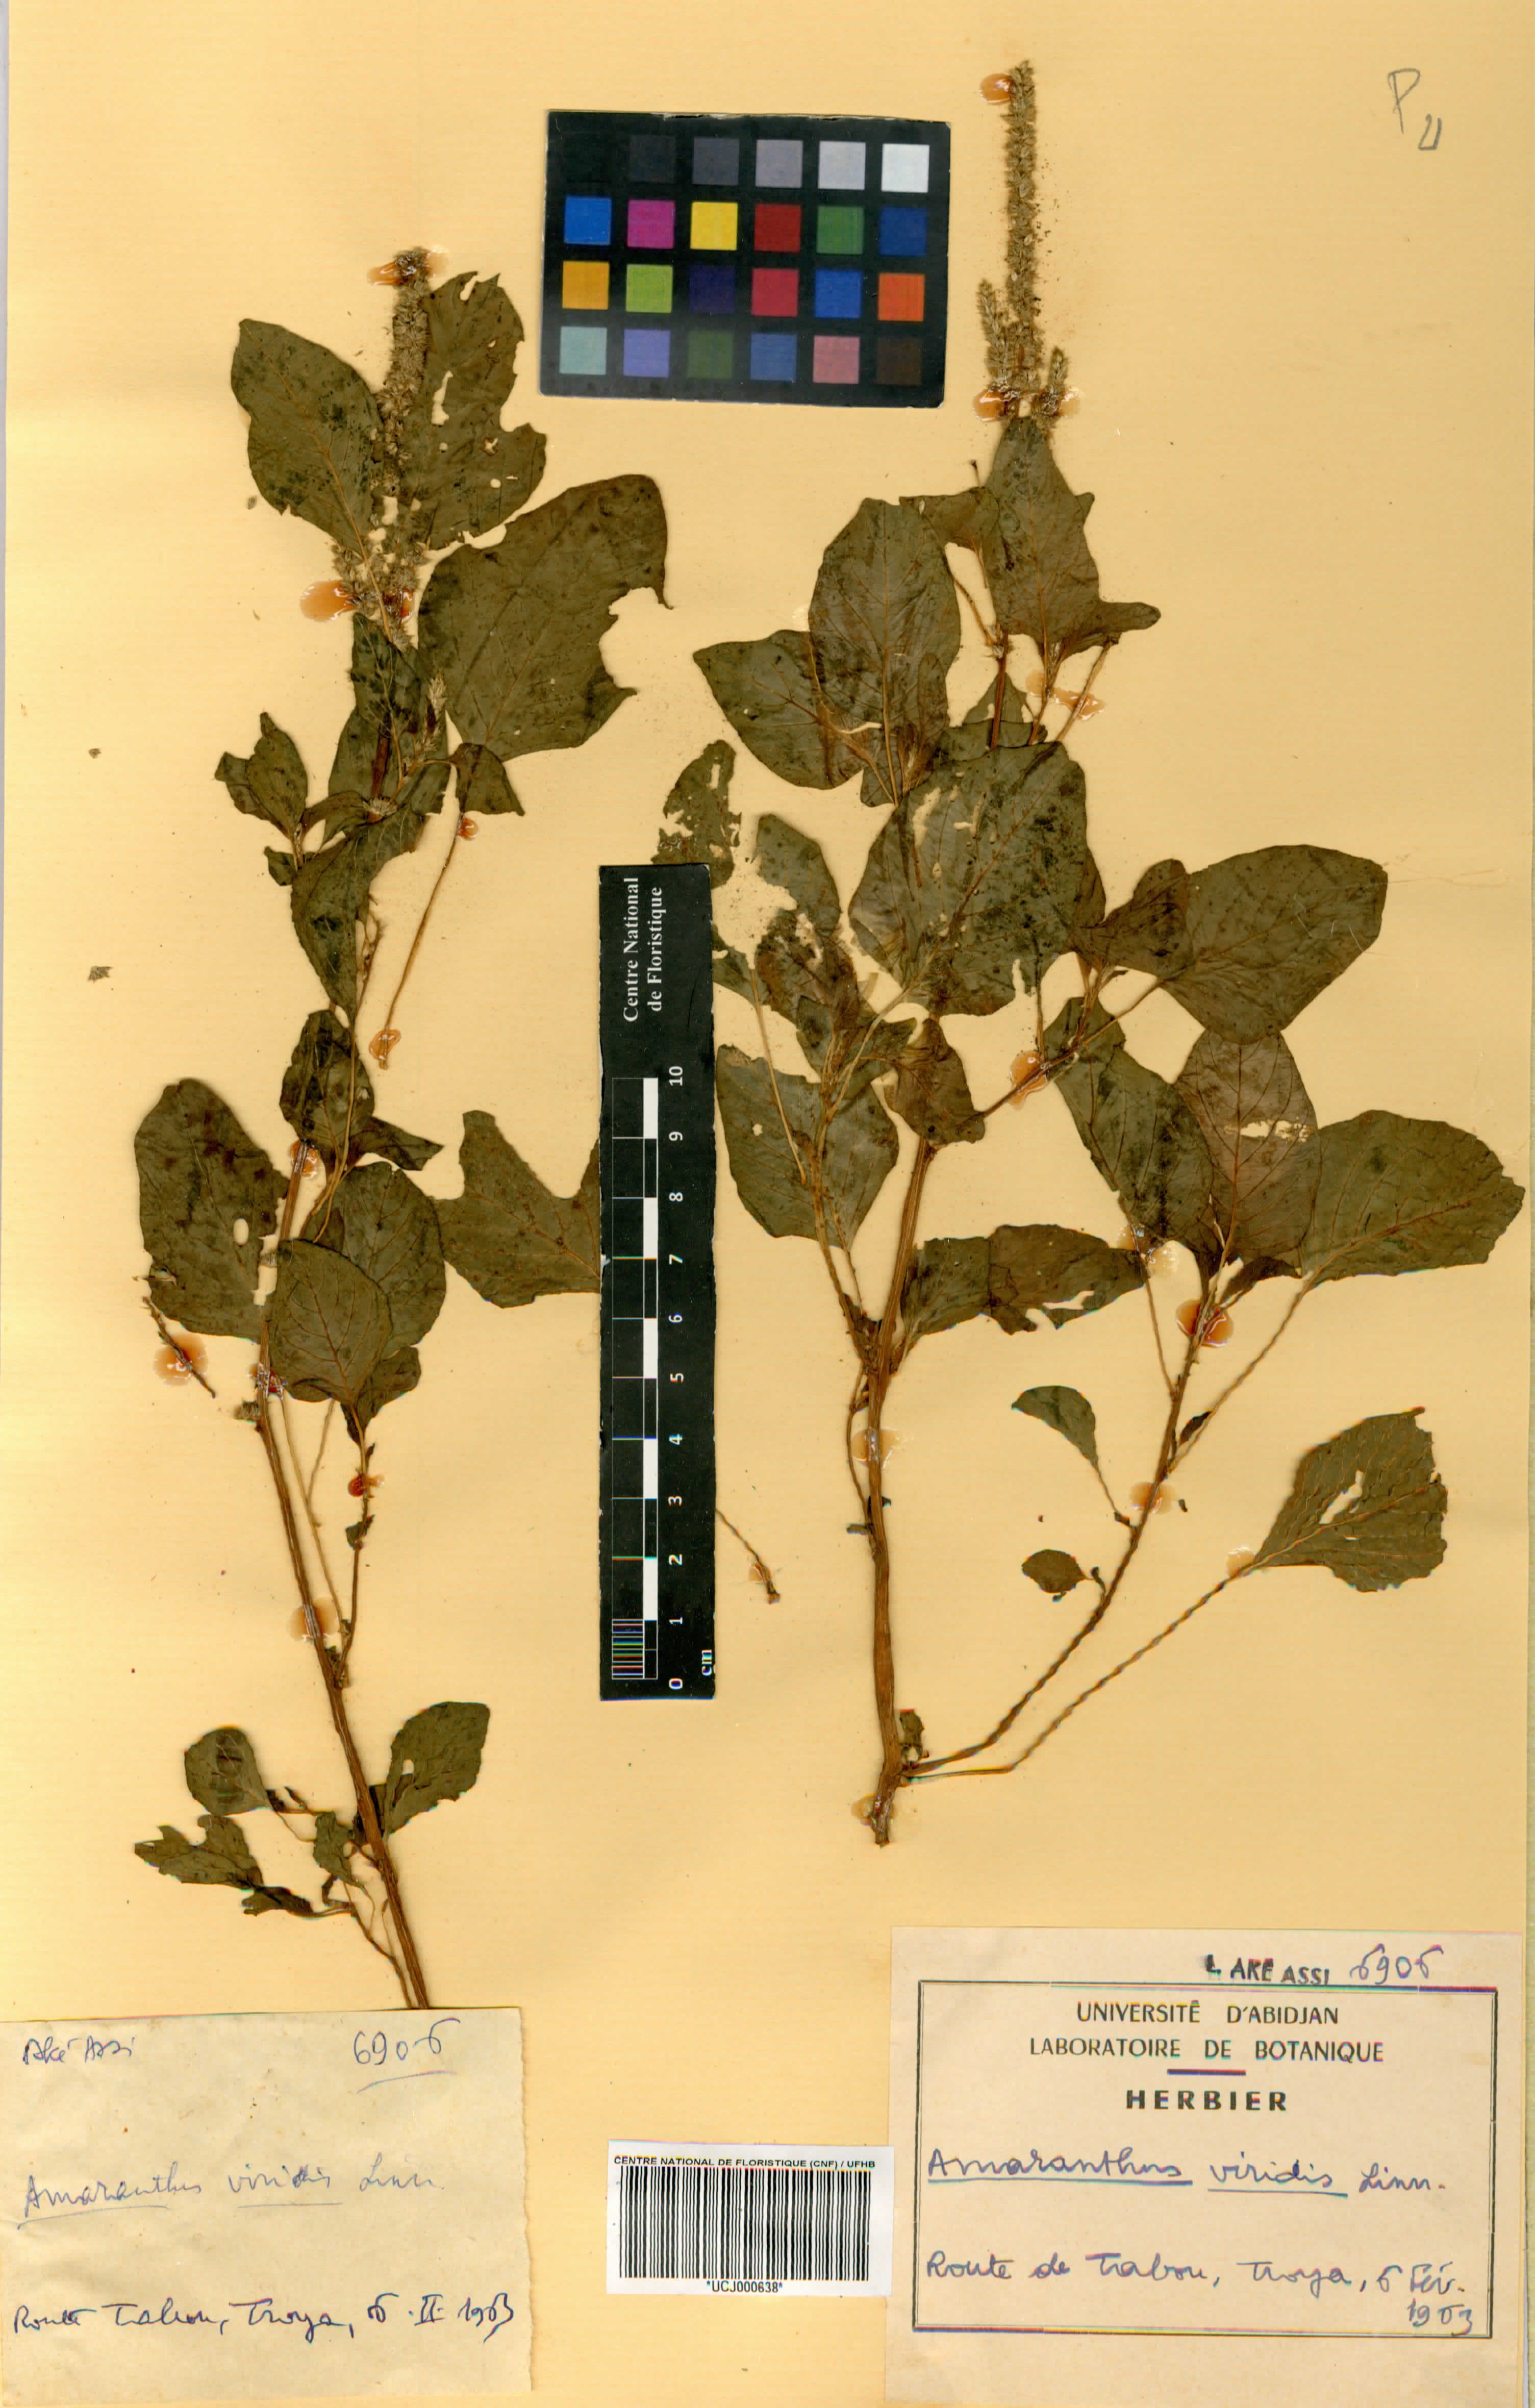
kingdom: Plantae
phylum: Tracheophyta
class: Magnoliopsida
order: Caryophyllales
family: Amaranthaceae
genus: Amaranthus
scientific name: Amaranthus
